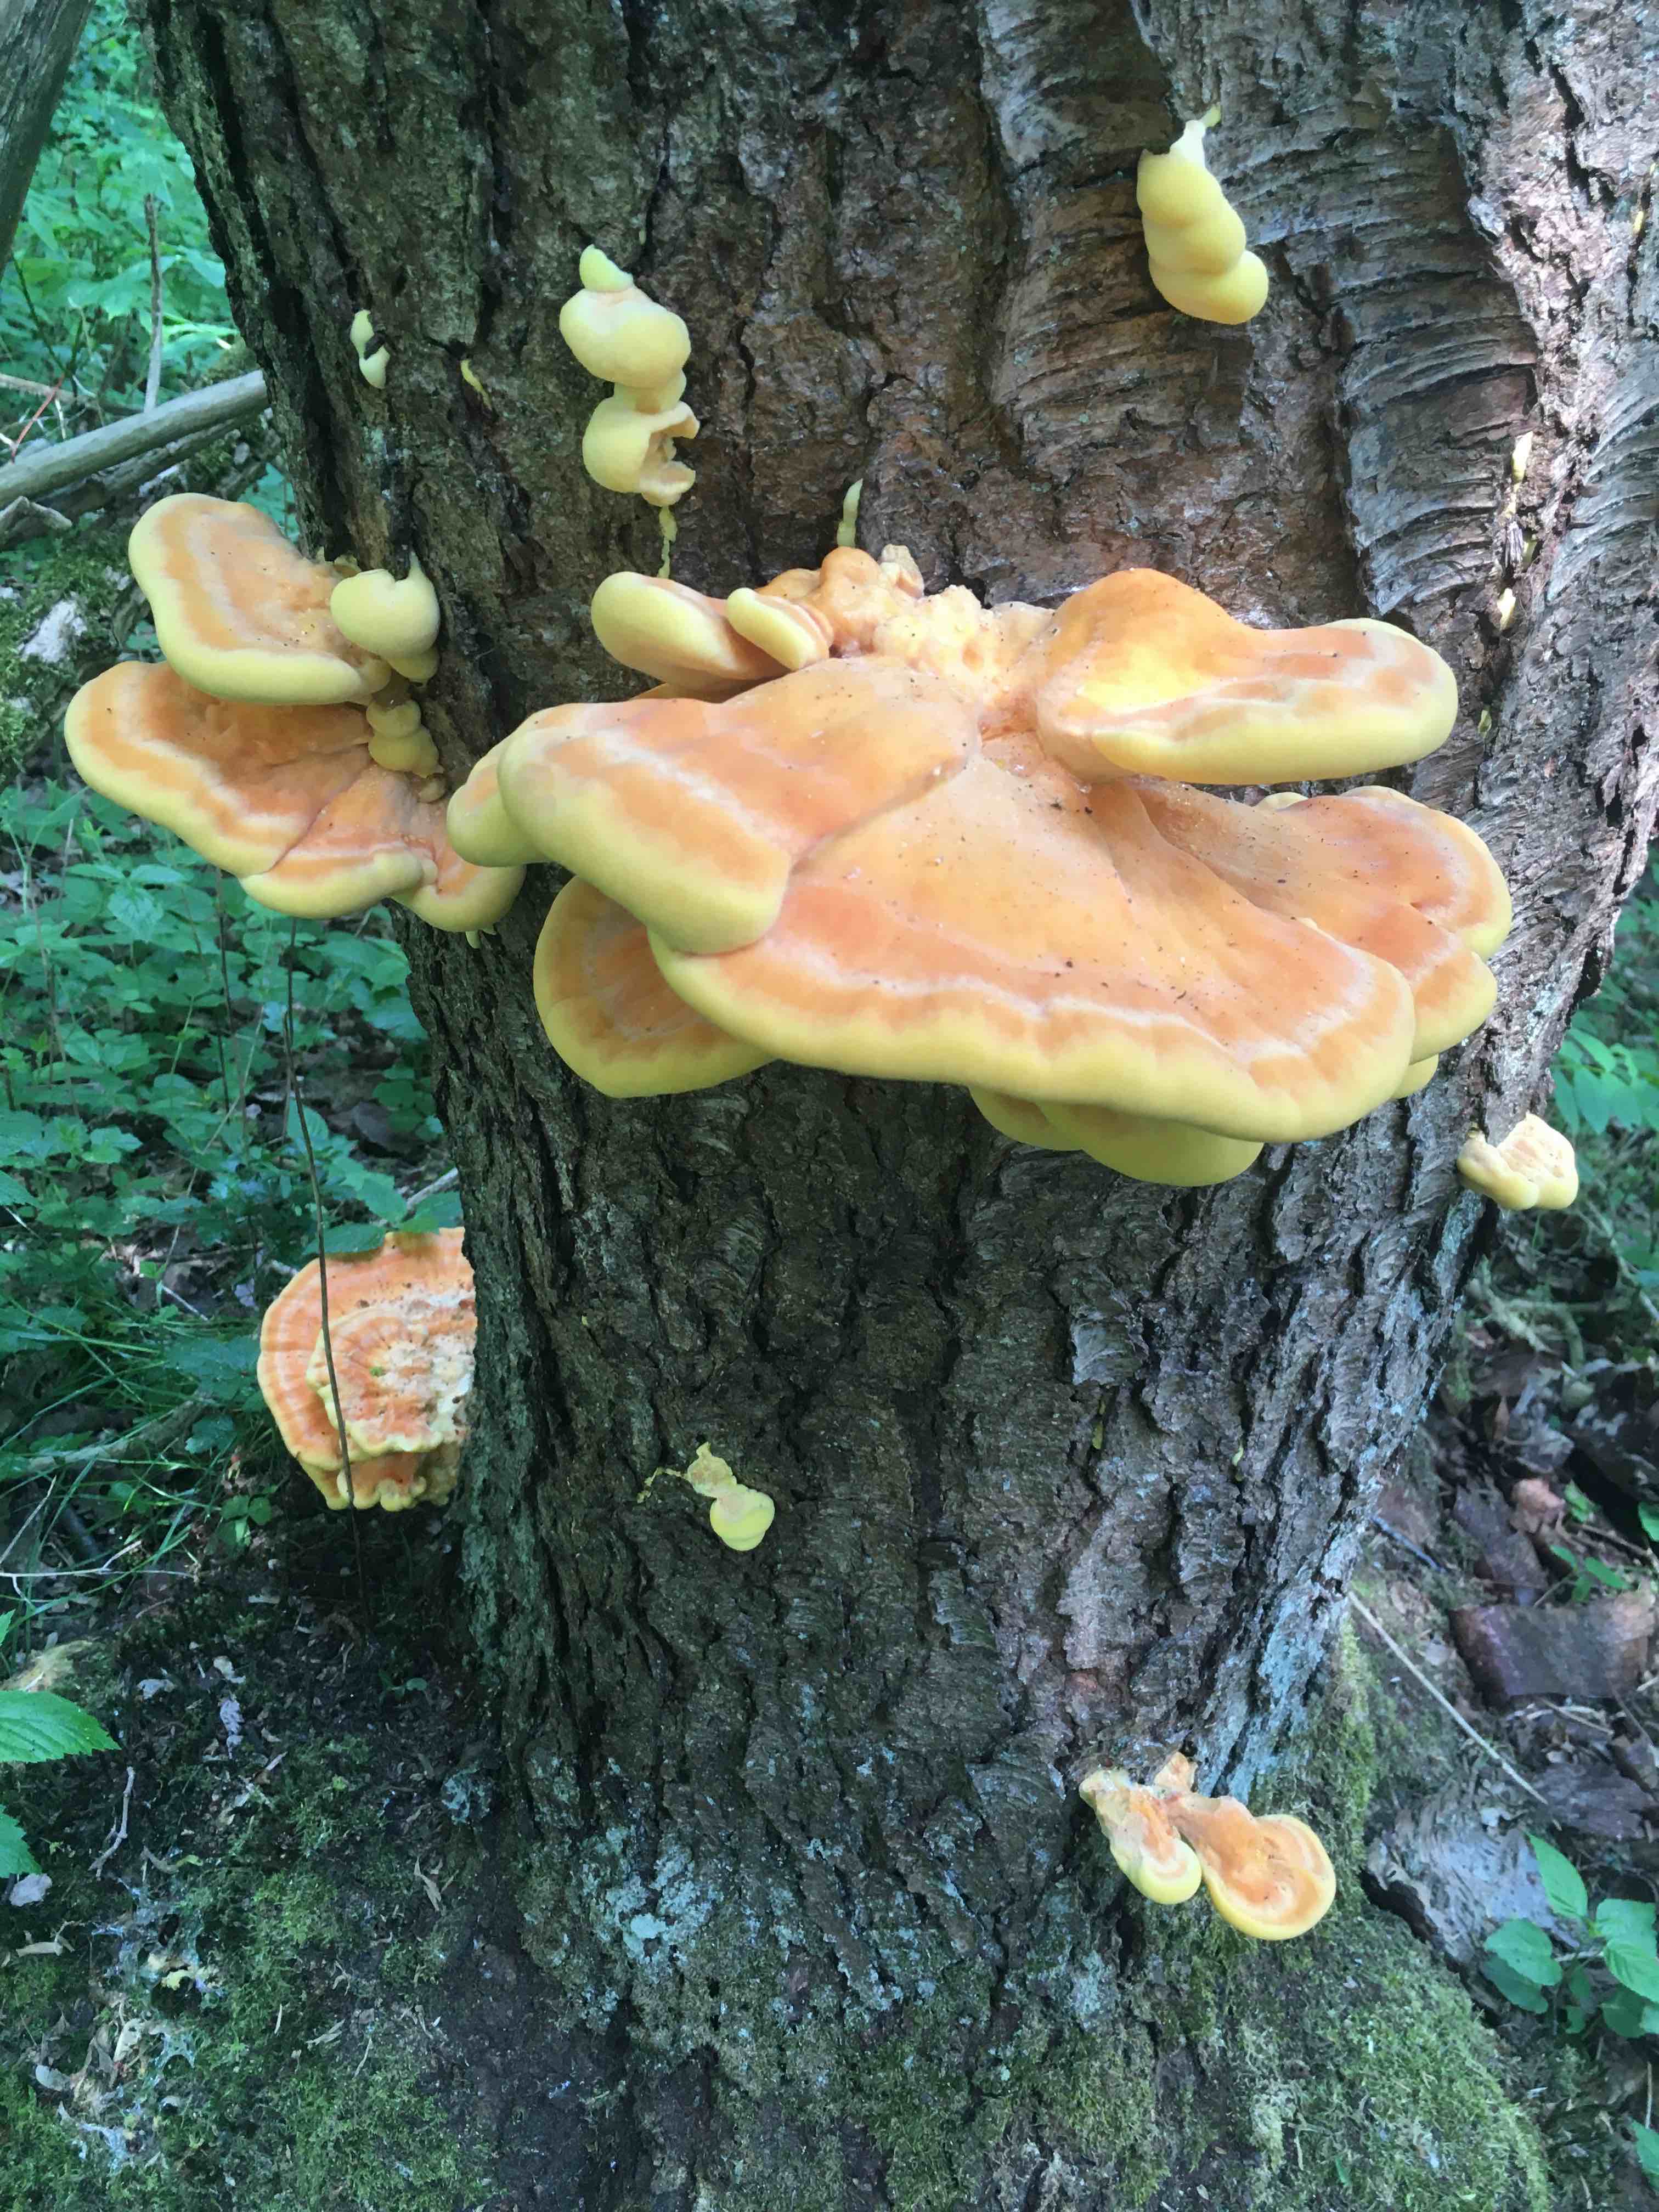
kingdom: Fungi
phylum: Basidiomycota
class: Agaricomycetes
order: Polyporales
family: Laetiporaceae
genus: Laetiporus
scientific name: Laetiporus sulphureus
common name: svovlporesvamp
